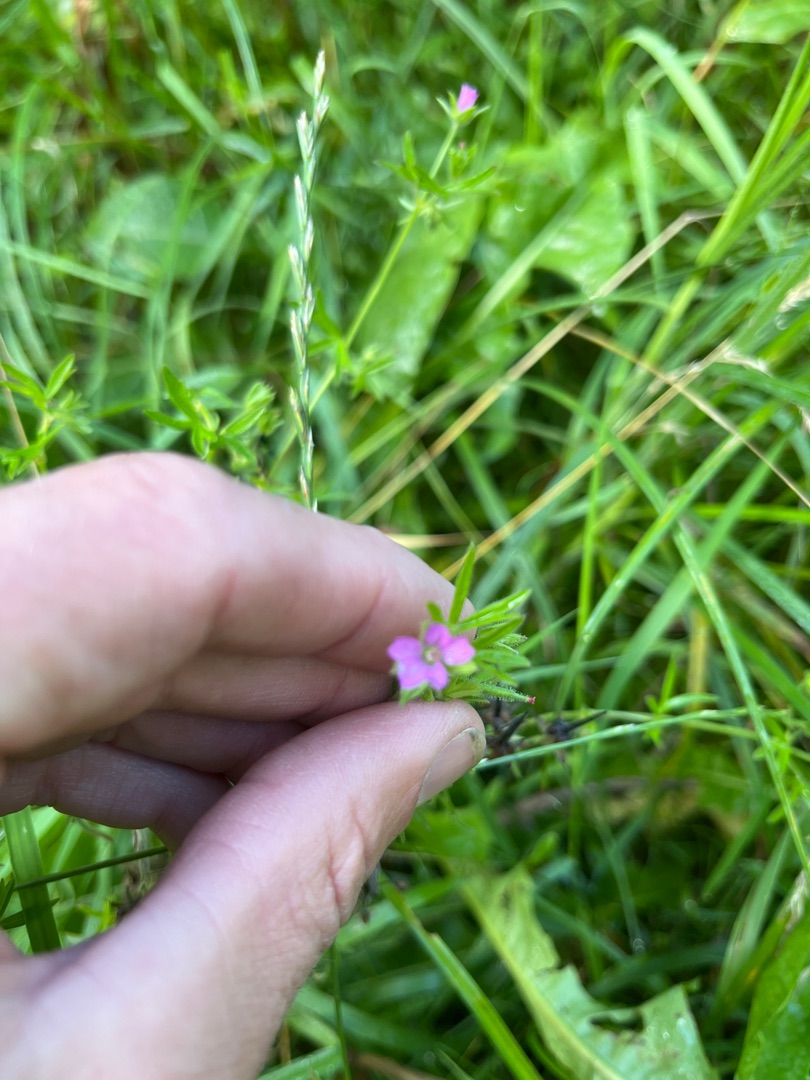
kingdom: Plantae
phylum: Tracheophyta
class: Magnoliopsida
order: Geraniales
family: Geraniaceae
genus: Geranium
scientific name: Geranium dissectum
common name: Kløftet storkenæb
